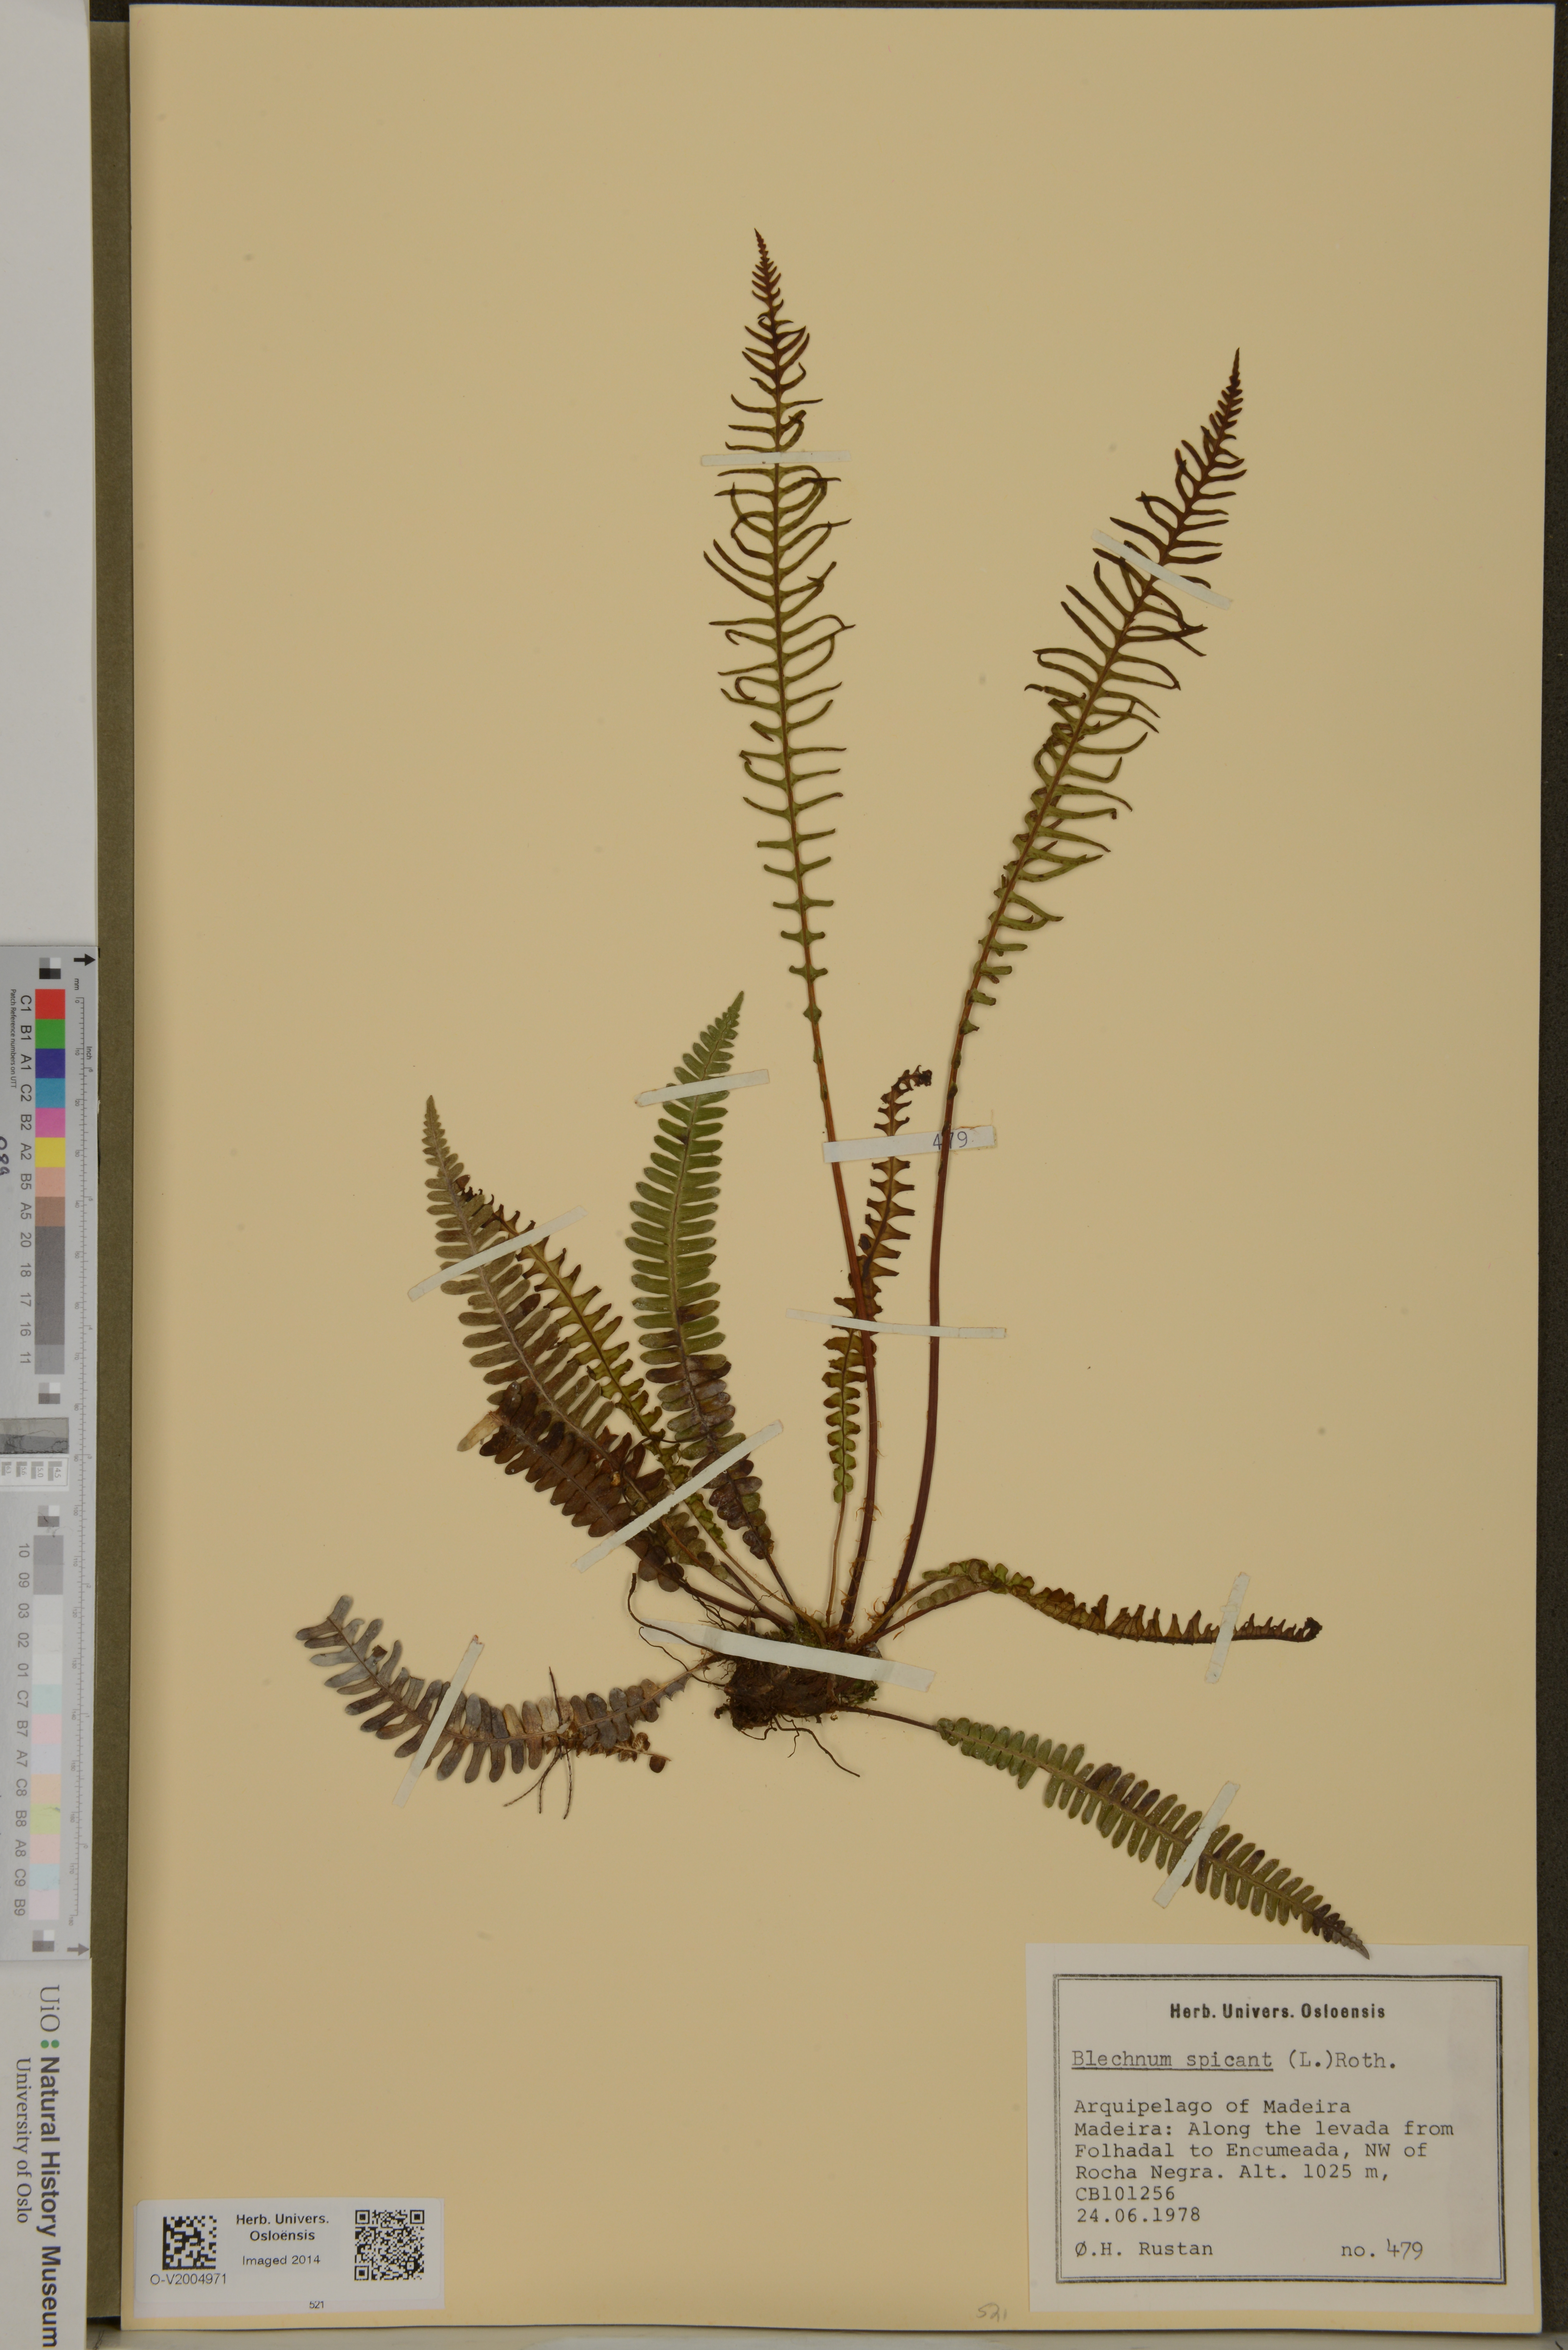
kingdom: Plantae
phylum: Tracheophyta
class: Polypodiopsida
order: Polypodiales
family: Blechnaceae
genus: Struthiopteris
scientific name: Struthiopteris spicant
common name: Deer fern
